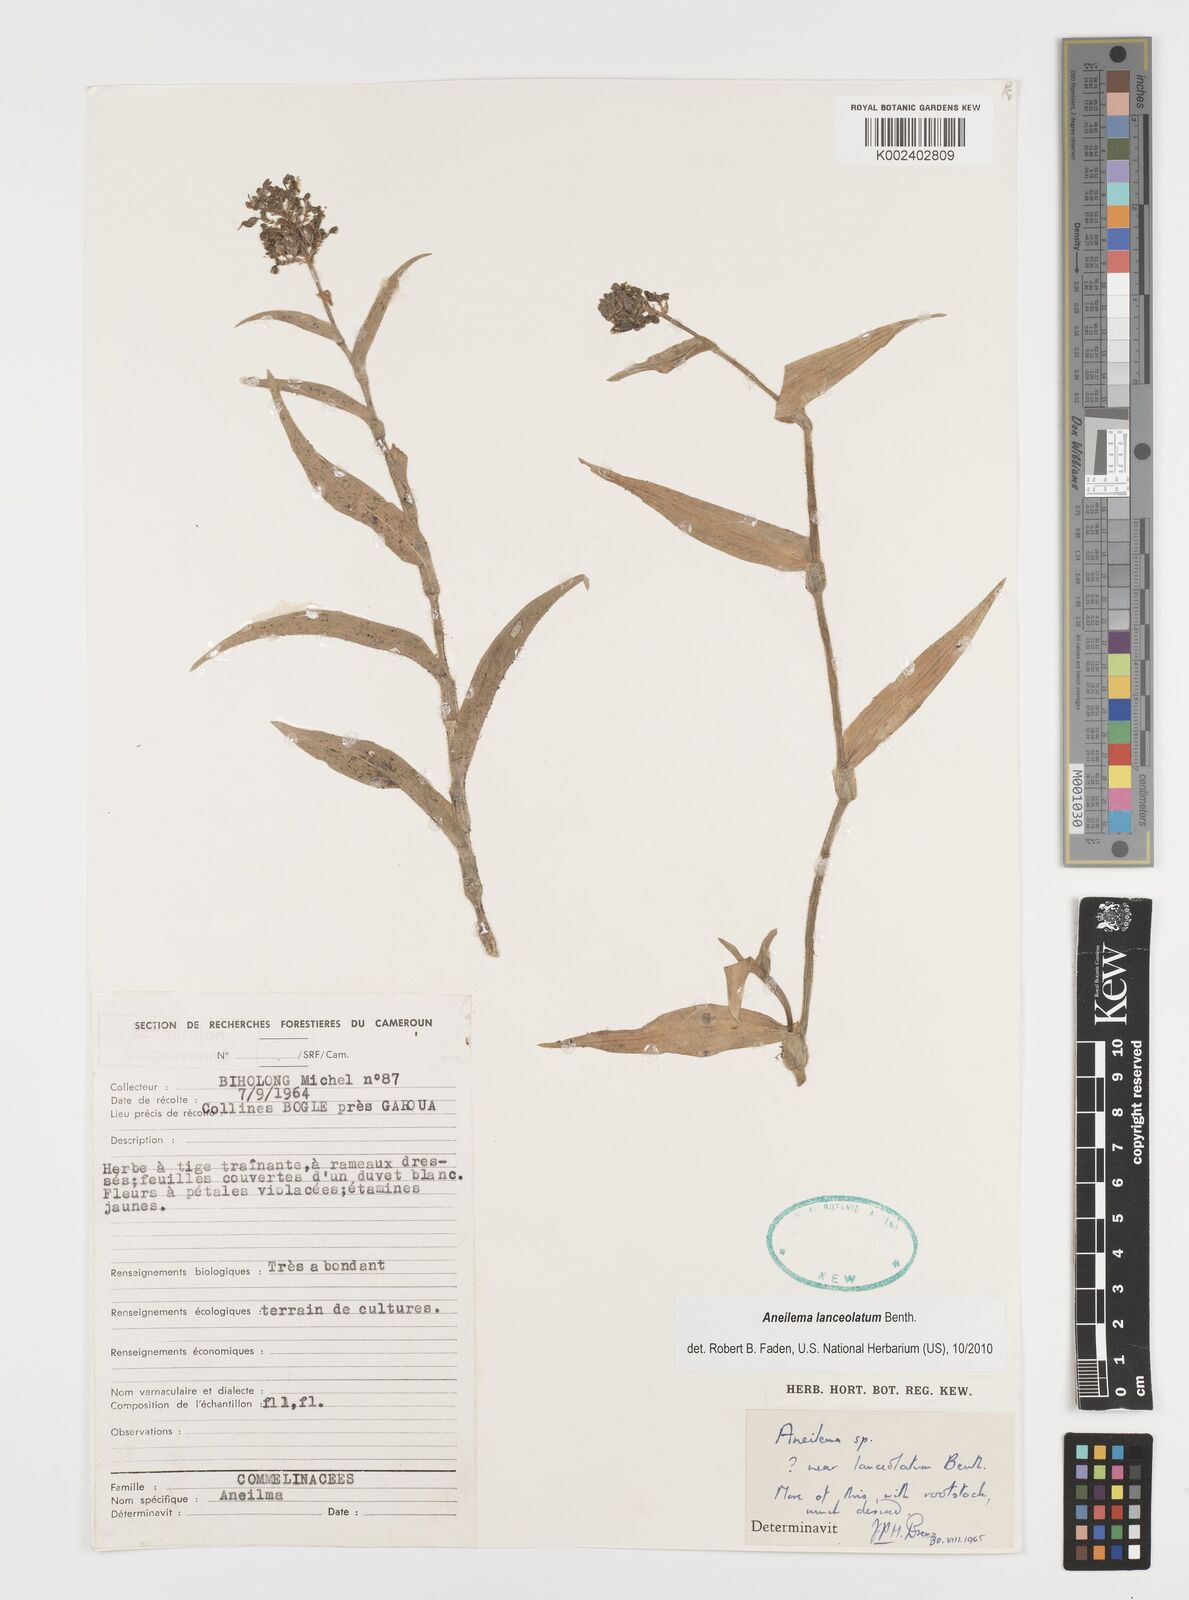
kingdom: Plantae
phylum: Tracheophyta
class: Liliopsida
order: Commelinales
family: Commelinaceae
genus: Aneilema
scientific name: Aneilema lanceolatum
